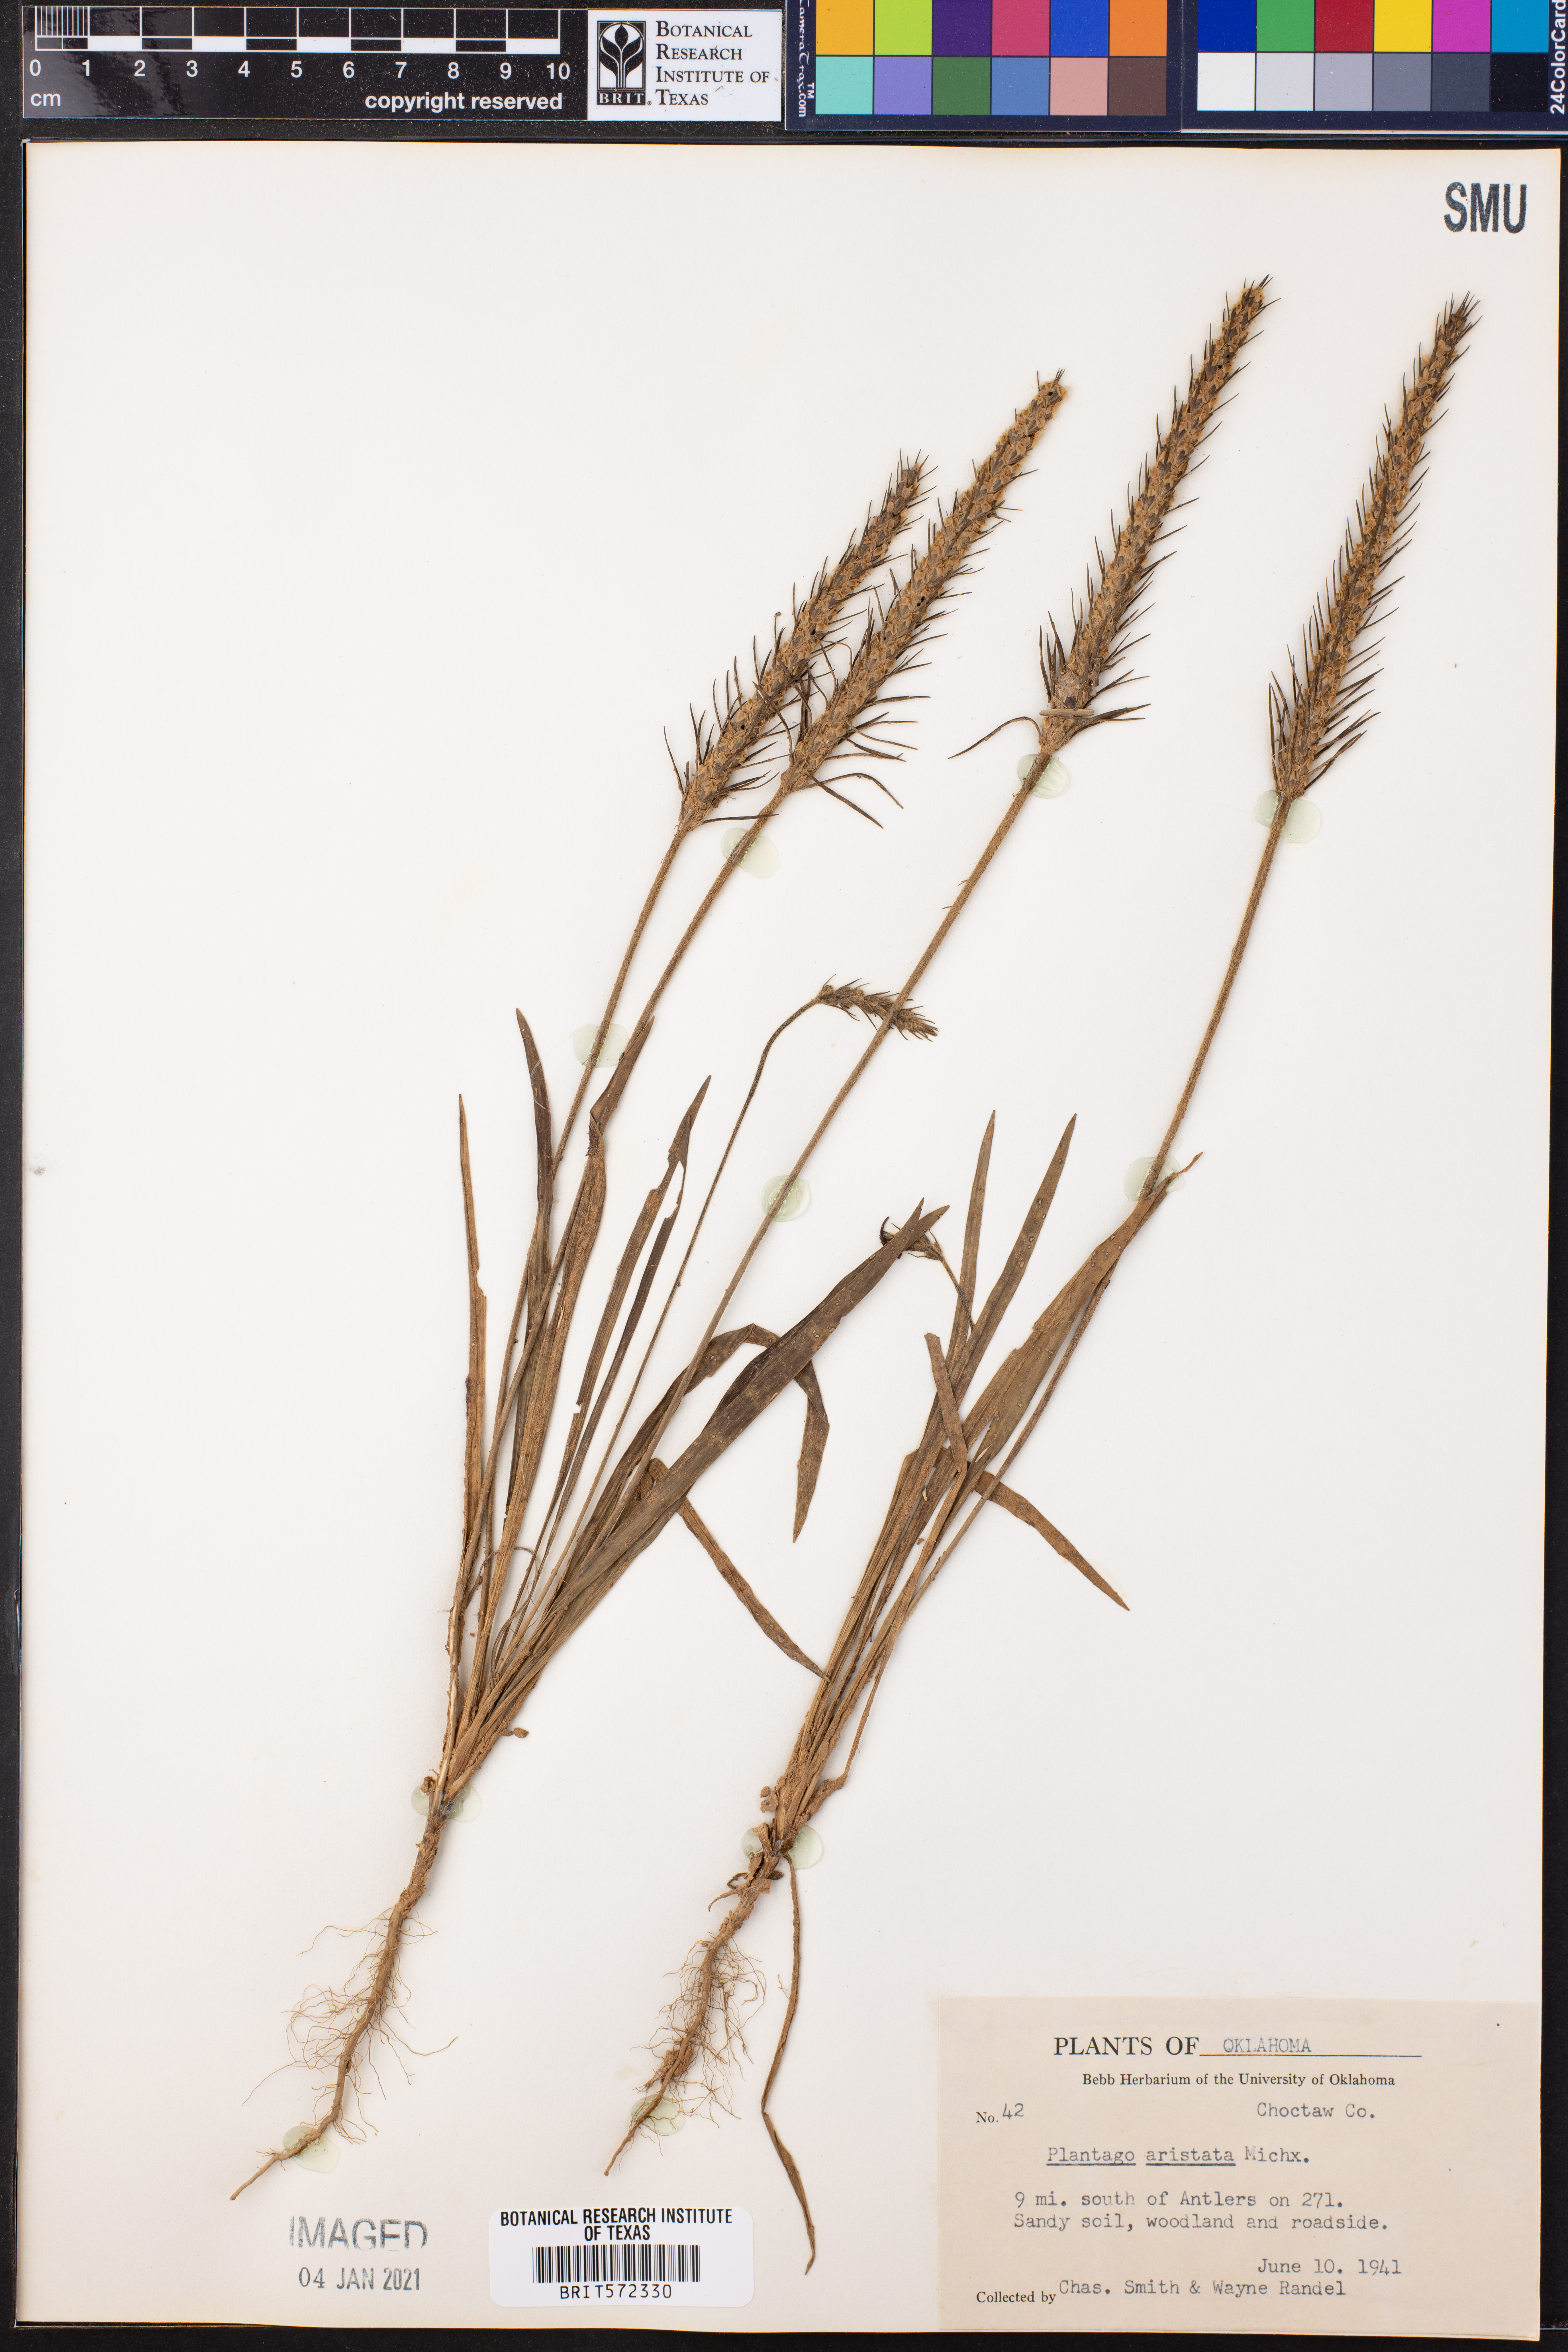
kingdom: Plantae
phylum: Tracheophyta
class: Magnoliopsida
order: Lamiales
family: Plantaginaceae
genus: Plantago
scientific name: Plantago aristata
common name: Bracted plantain
